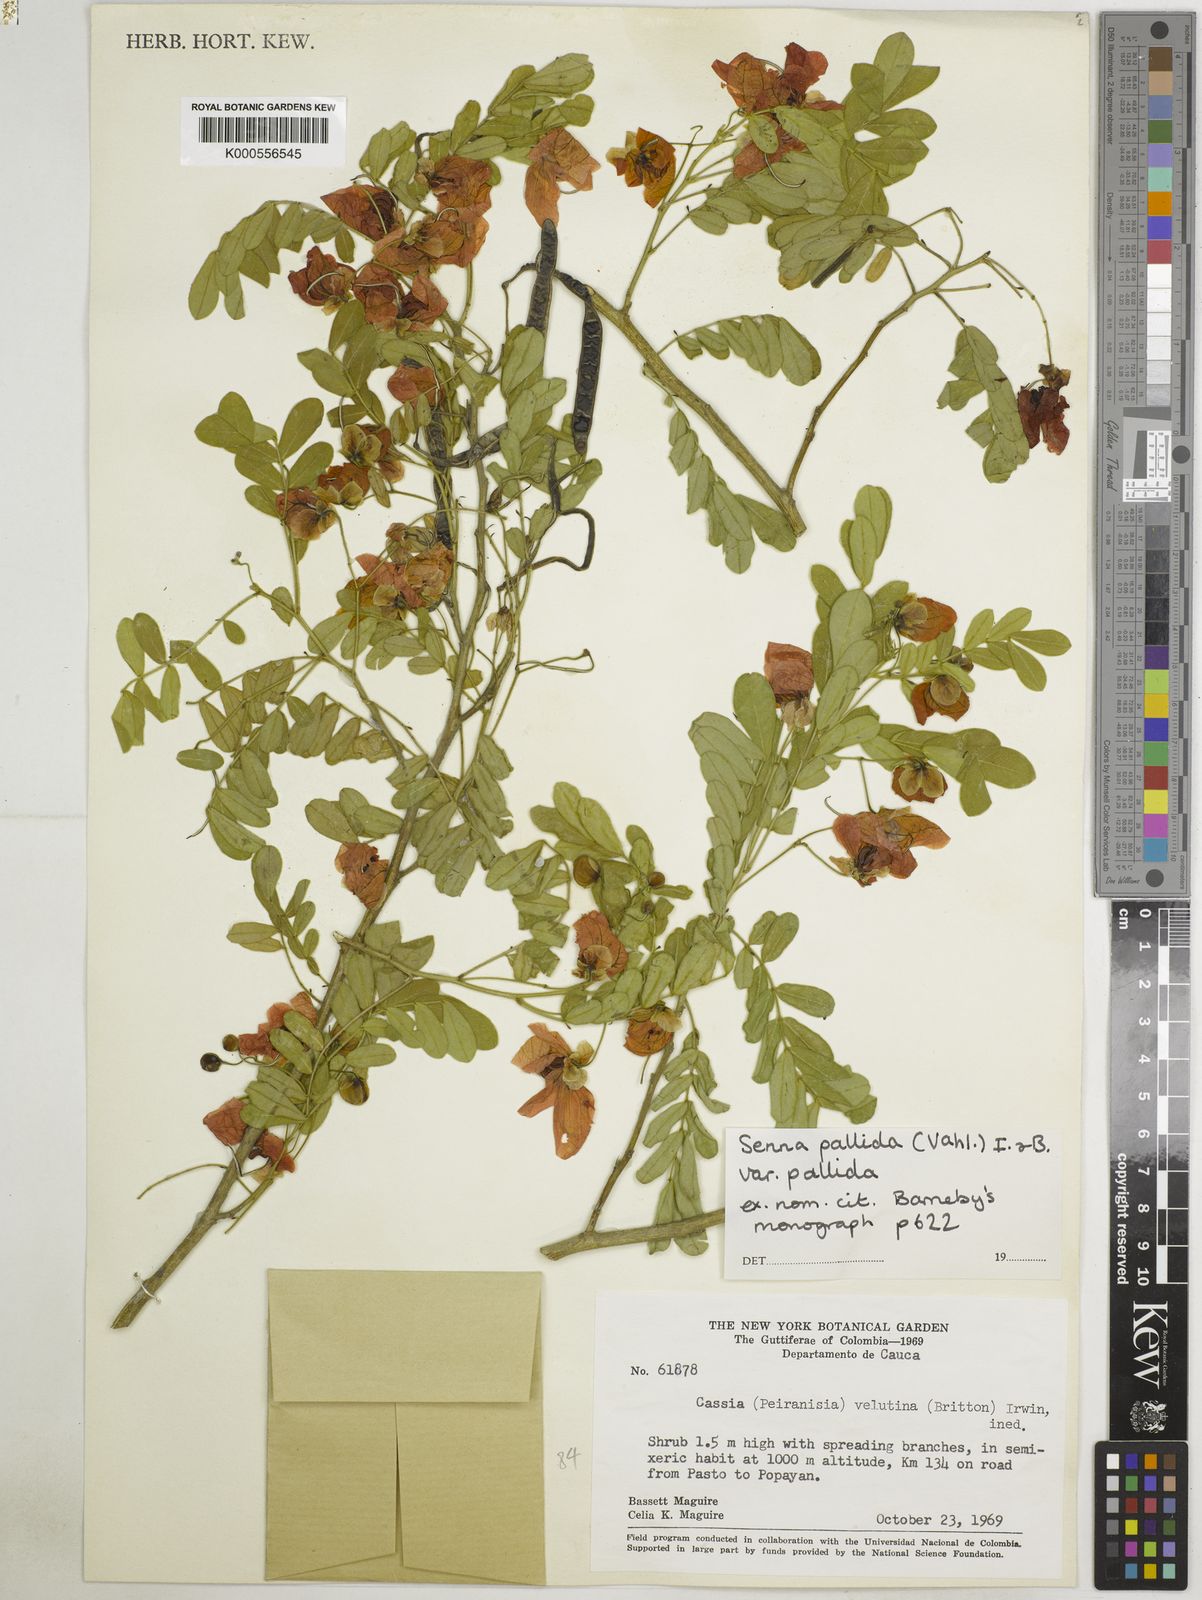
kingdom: Plantae
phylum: Tracheophyta
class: Magnoliopsida
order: Fabales
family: Fabaceae
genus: Senna
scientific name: Senna pallida
